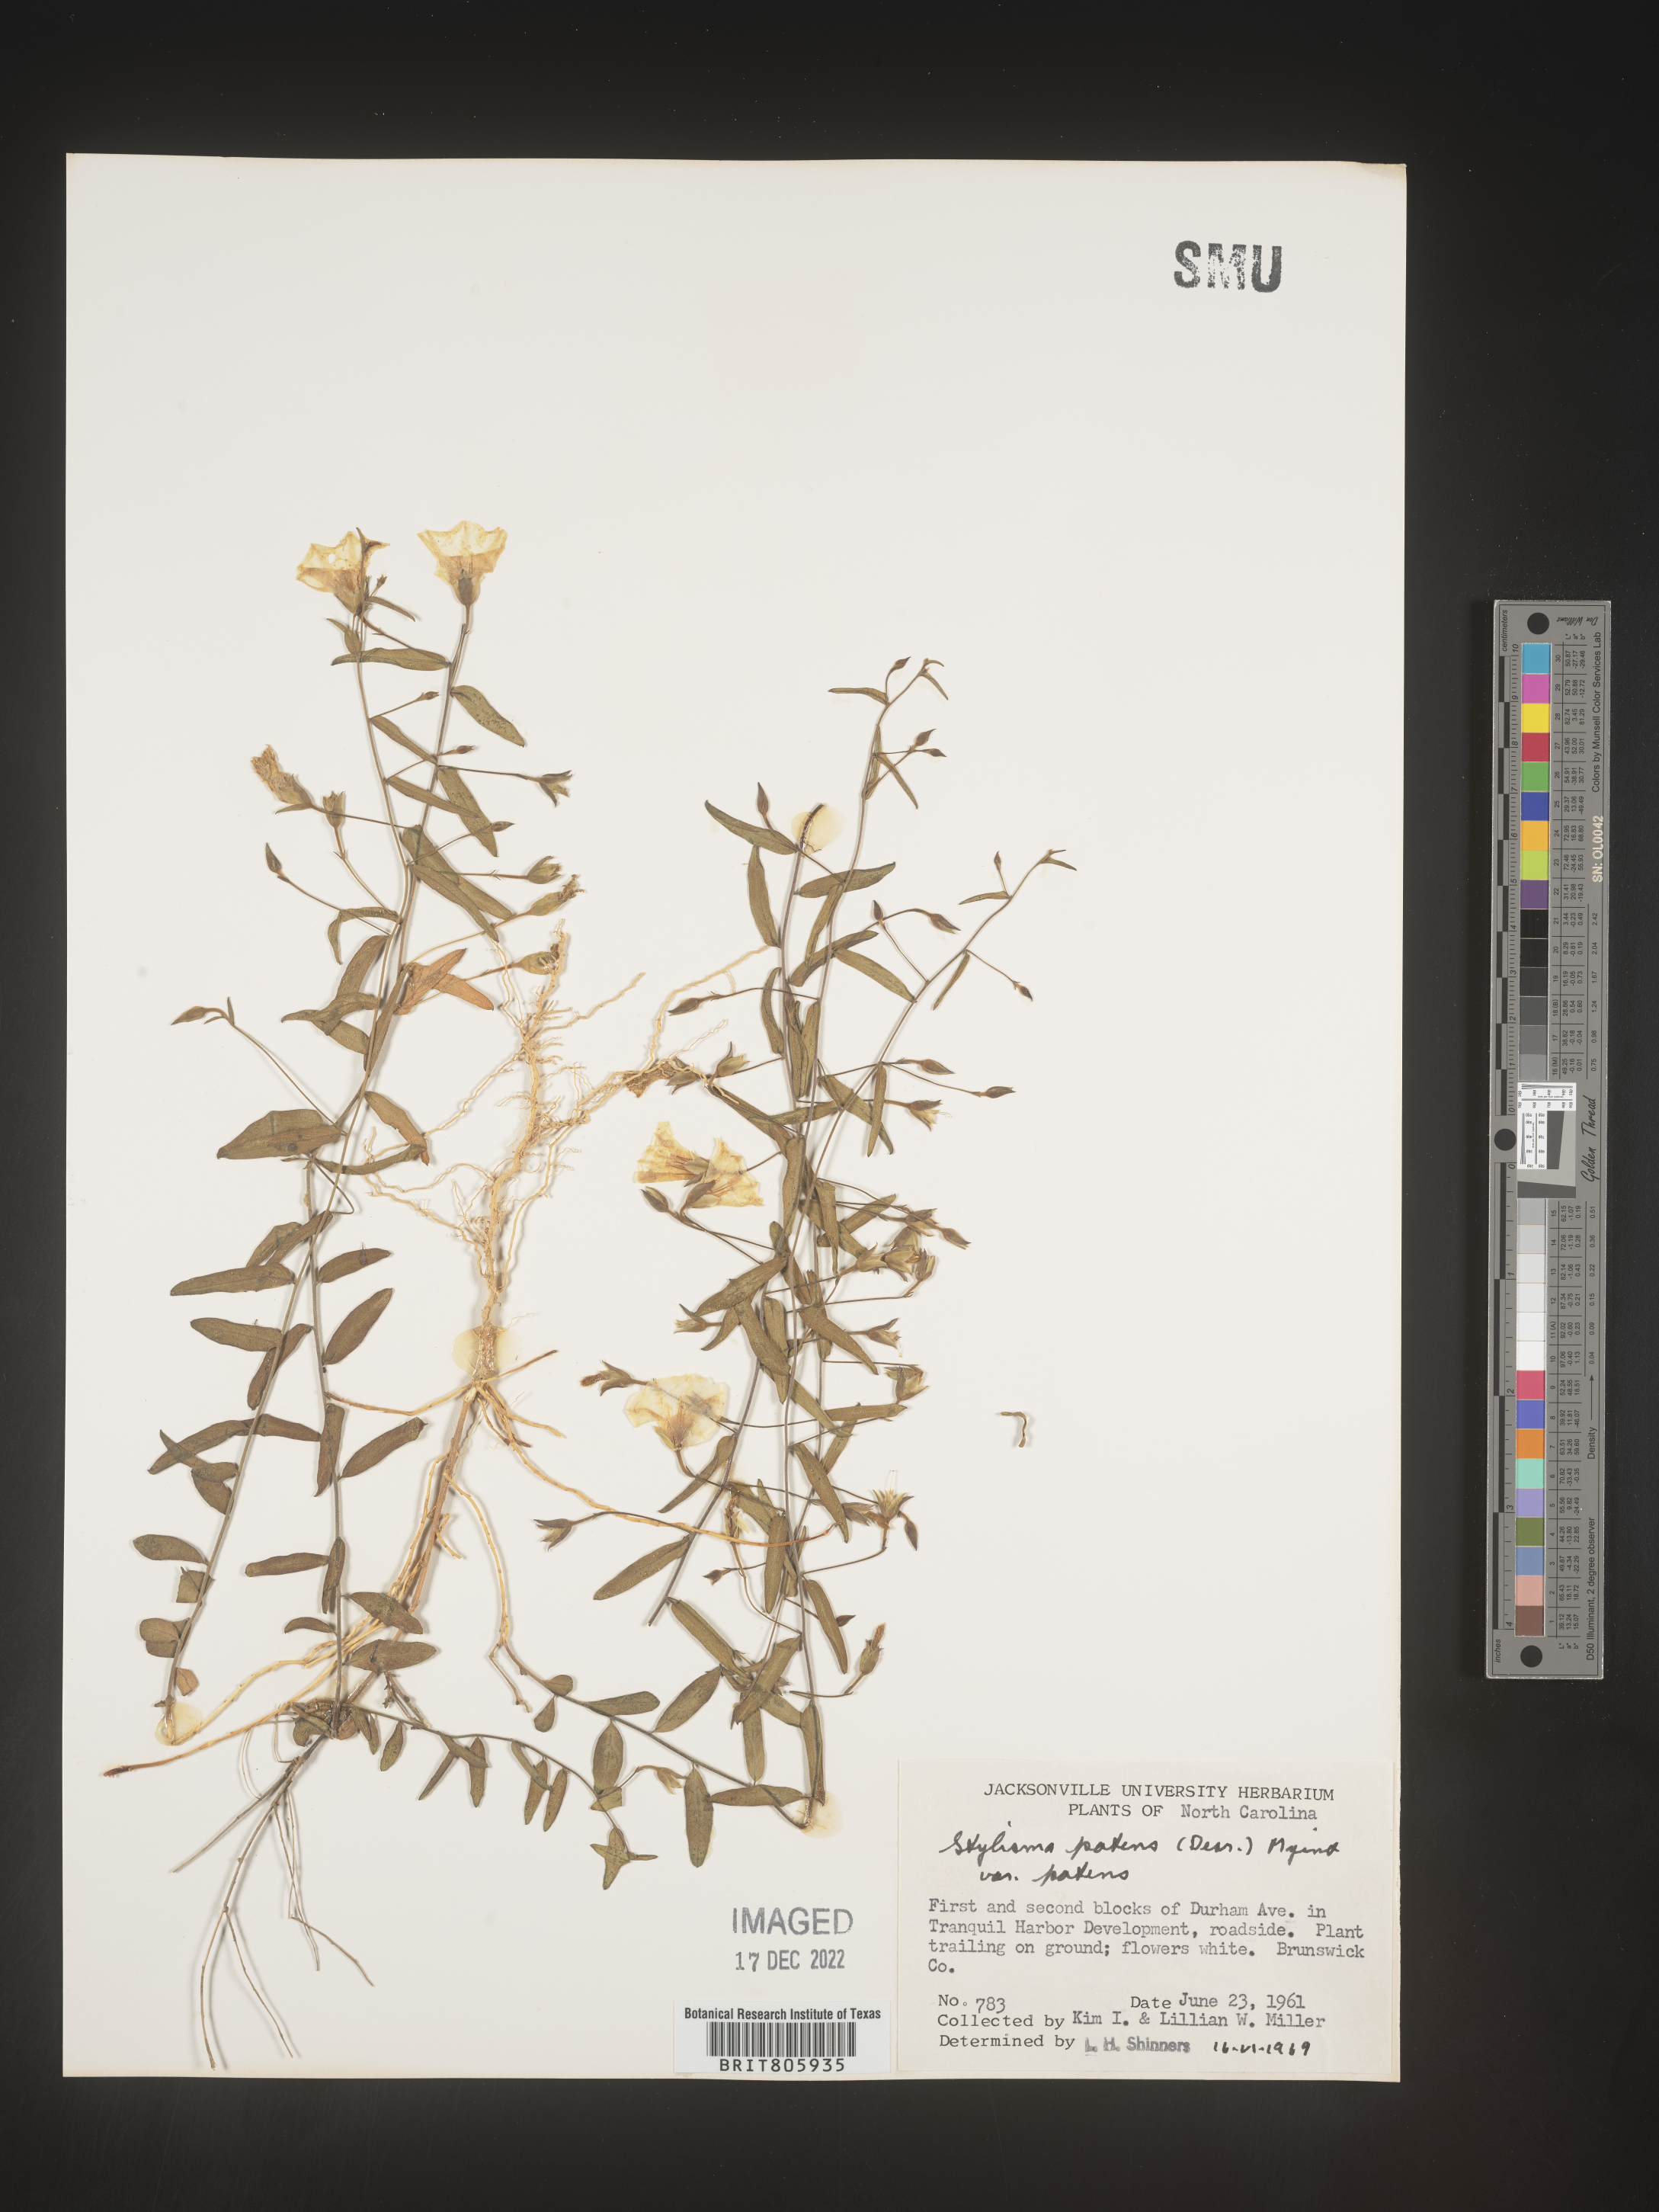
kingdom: Plantae
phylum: Tracheophyta
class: Magnoliopsida
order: Solanales
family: Convolvulaceae
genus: Stylisma
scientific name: Stylisma
